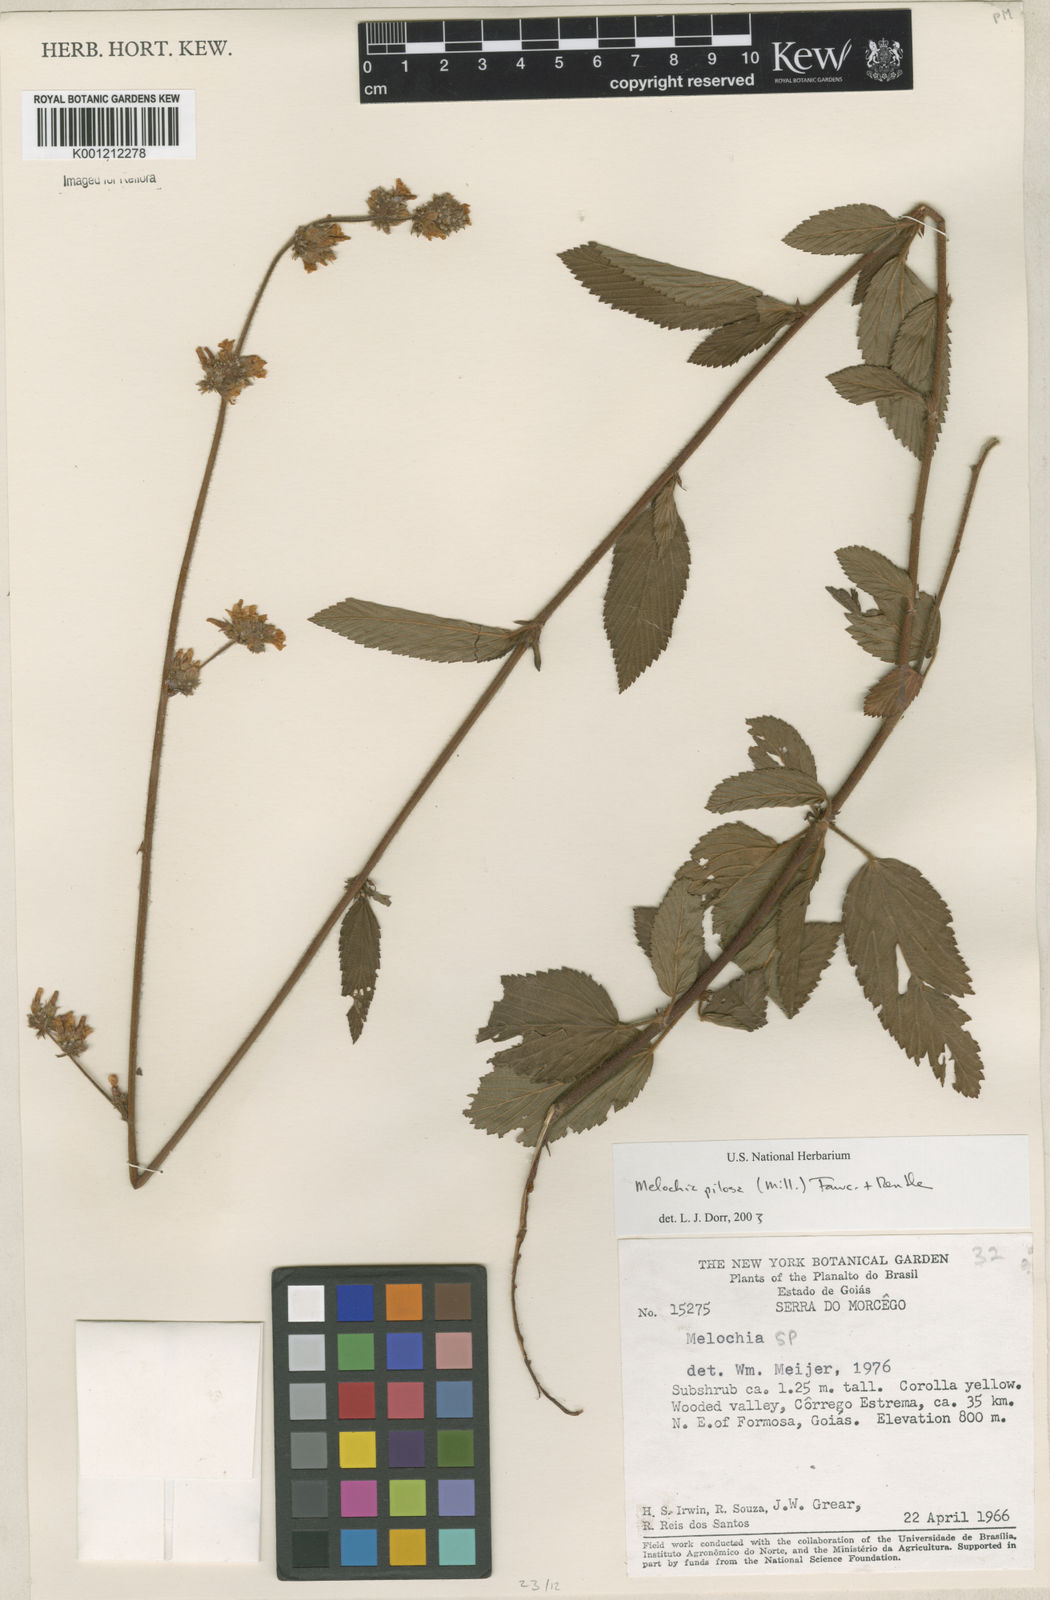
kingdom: Plantae
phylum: Tracheophyta
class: Magnoliopsida
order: Malvales
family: Malvaceae
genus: Melochia
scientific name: Melochia pilosa
